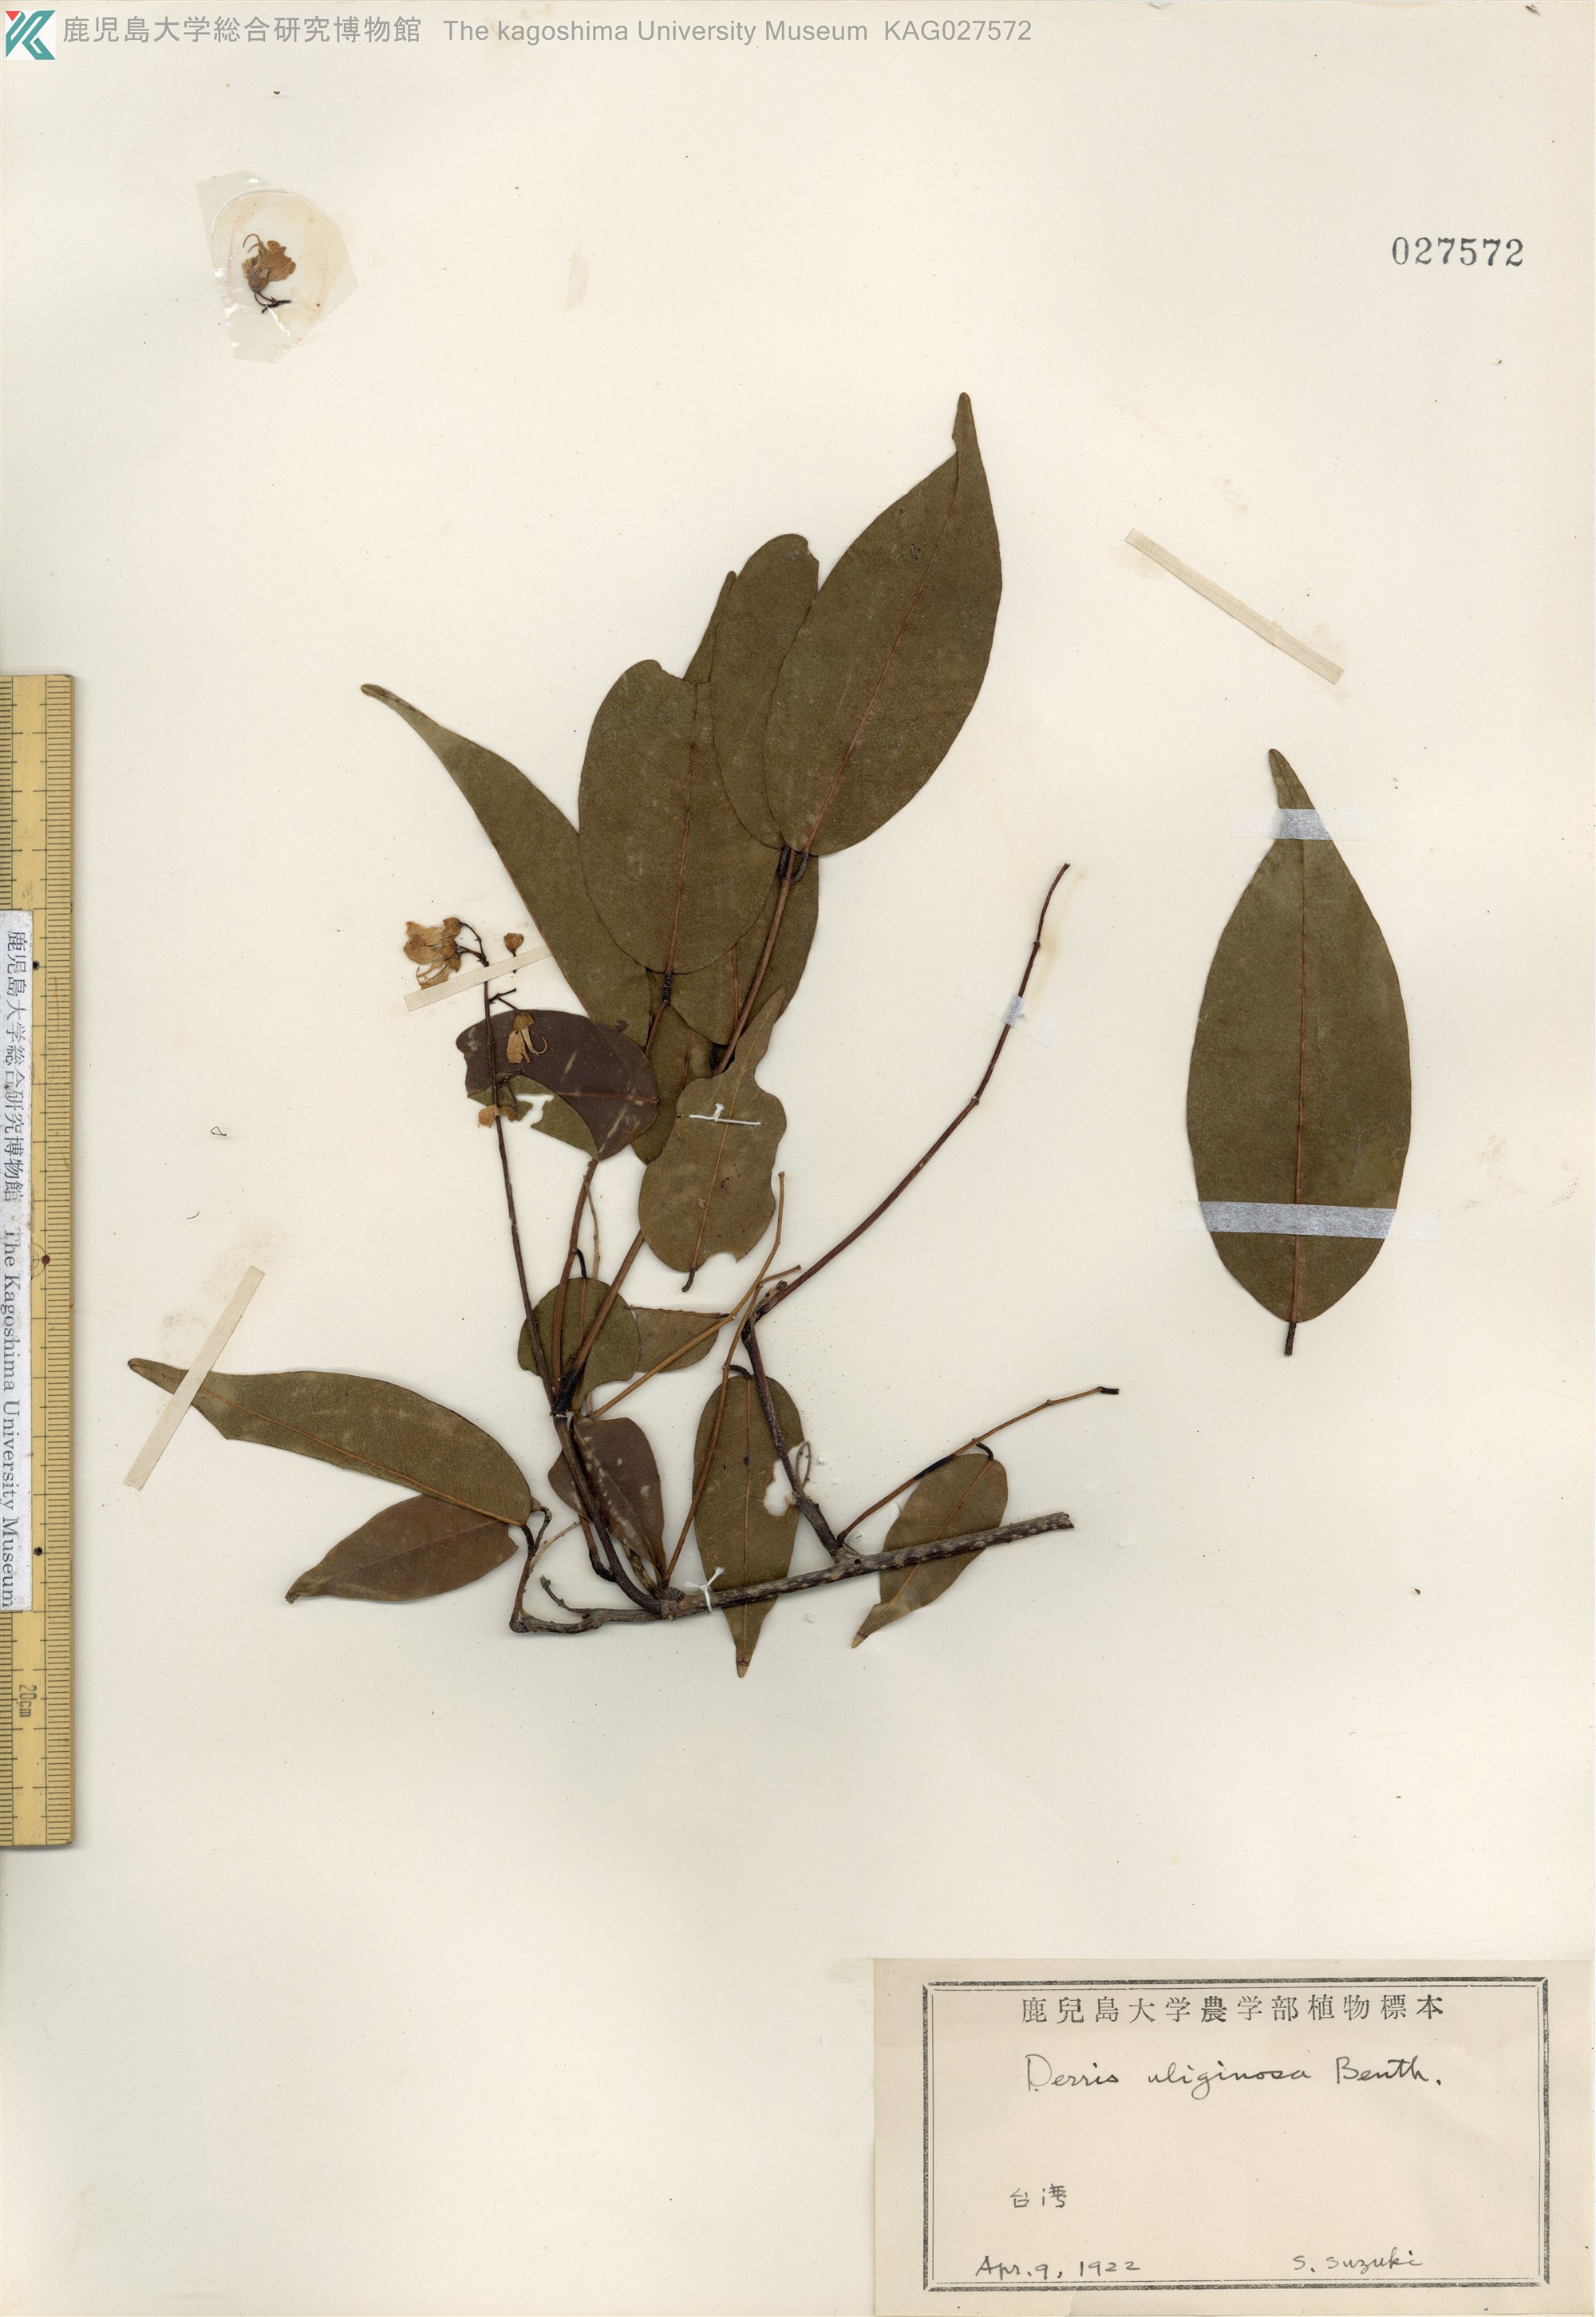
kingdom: Plantae
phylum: Tracheophyta
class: Magnoliopsida
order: Fabales
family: Fabaceae
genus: Derris
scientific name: Derris trifoliata
